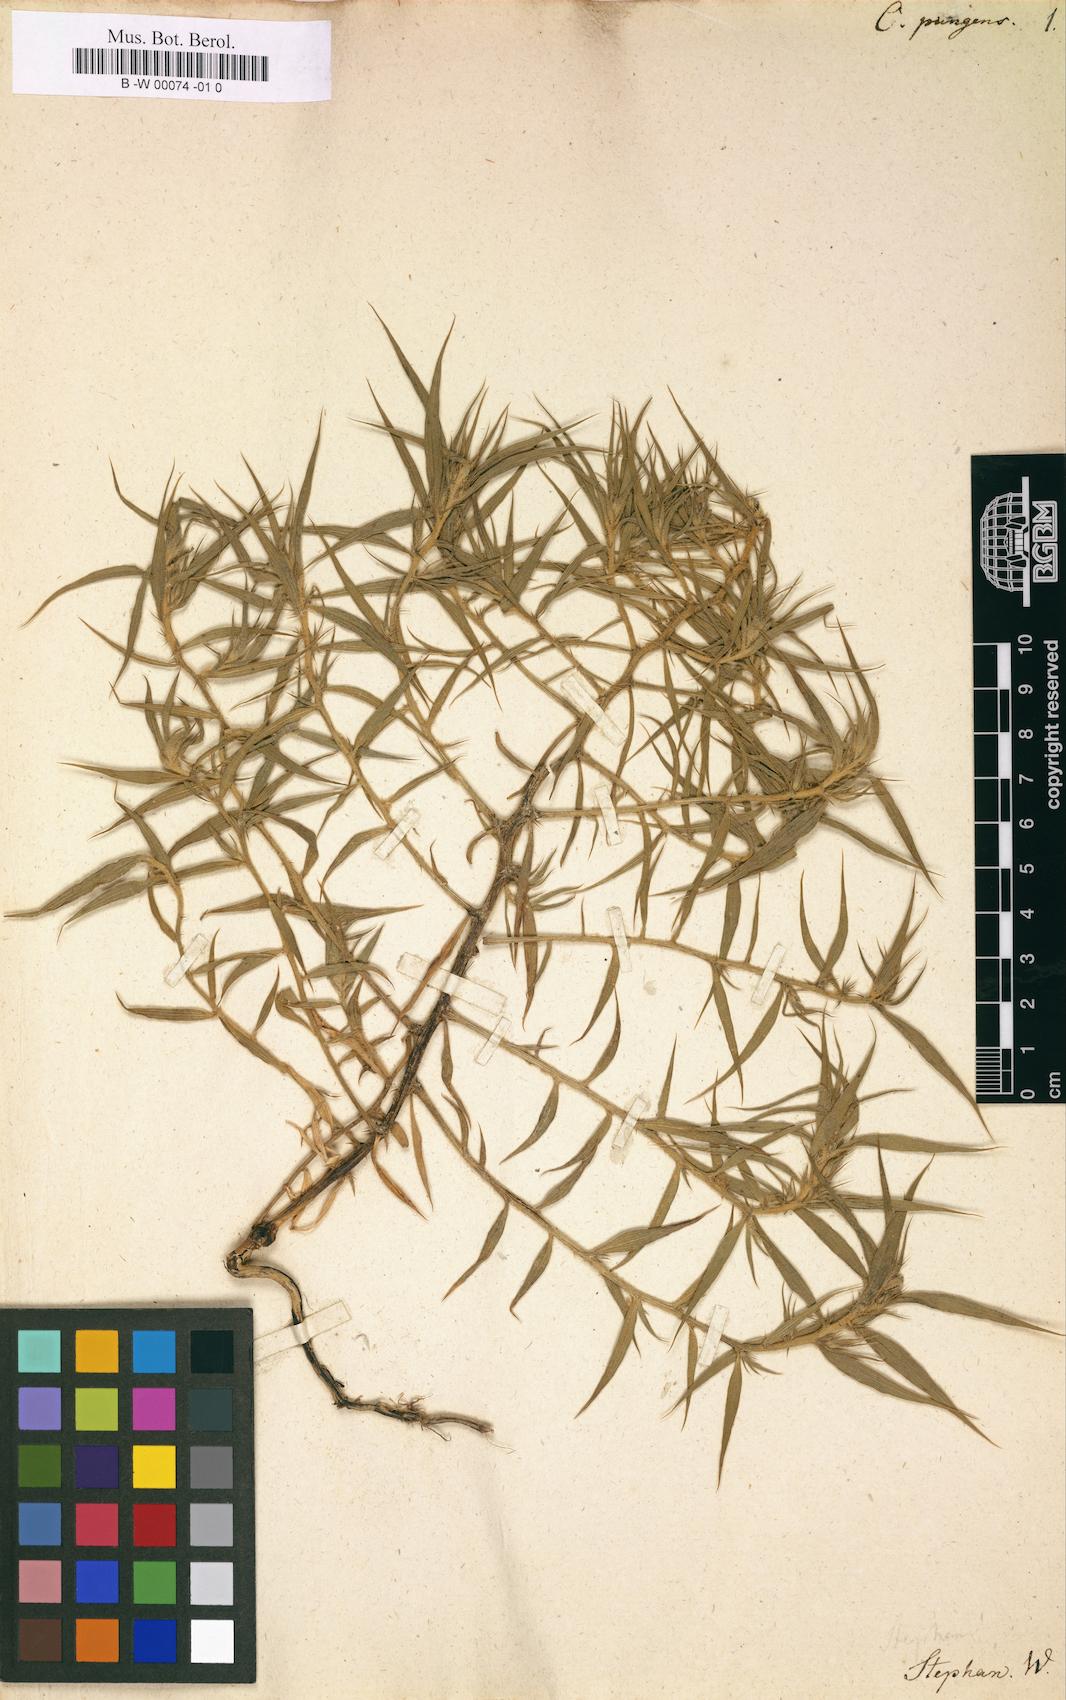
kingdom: Plantae
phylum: Tracheophyta
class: Magnoliopsida
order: Caryophyllales
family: Amaranthaceae
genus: Agriophyllum
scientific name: Agriophyllum pungens
